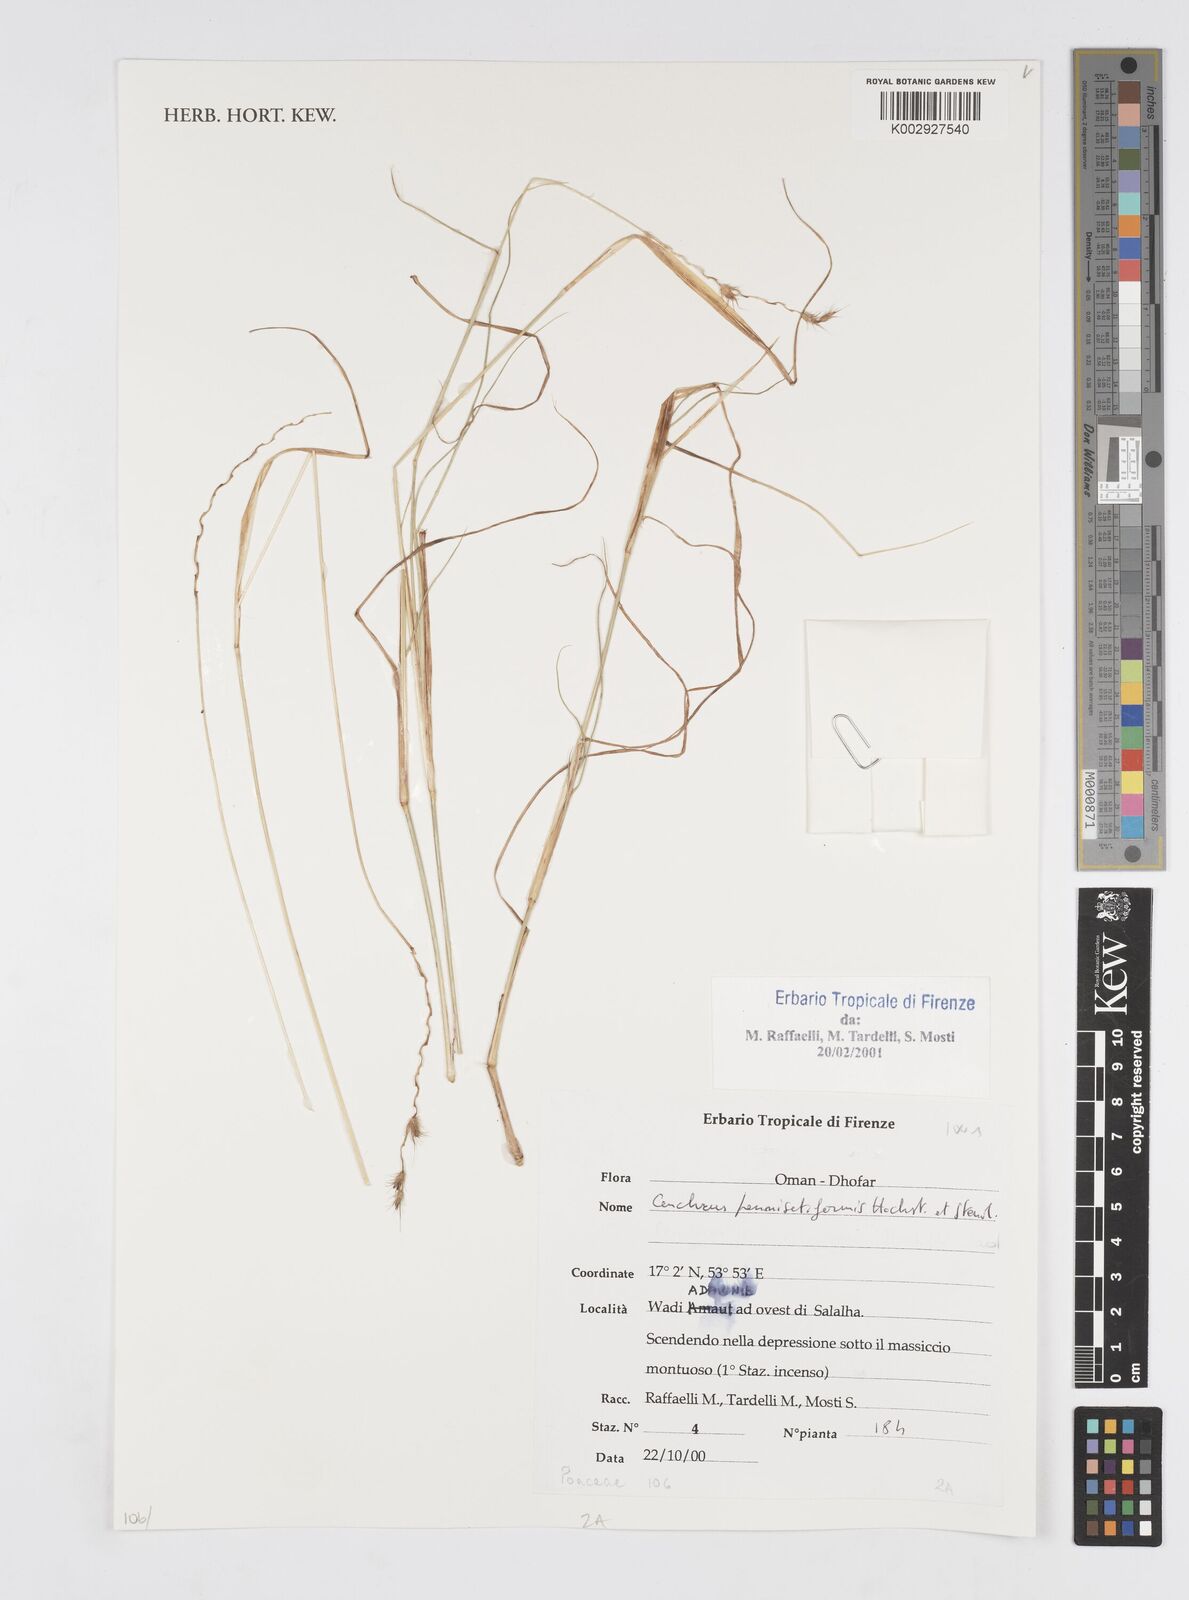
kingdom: Plantae
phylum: Tracheophyta
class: Liliopsida
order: Poales
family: Poaceae
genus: Cenchrus
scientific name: Cenchrus pennisetiformis
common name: Cloncurry
